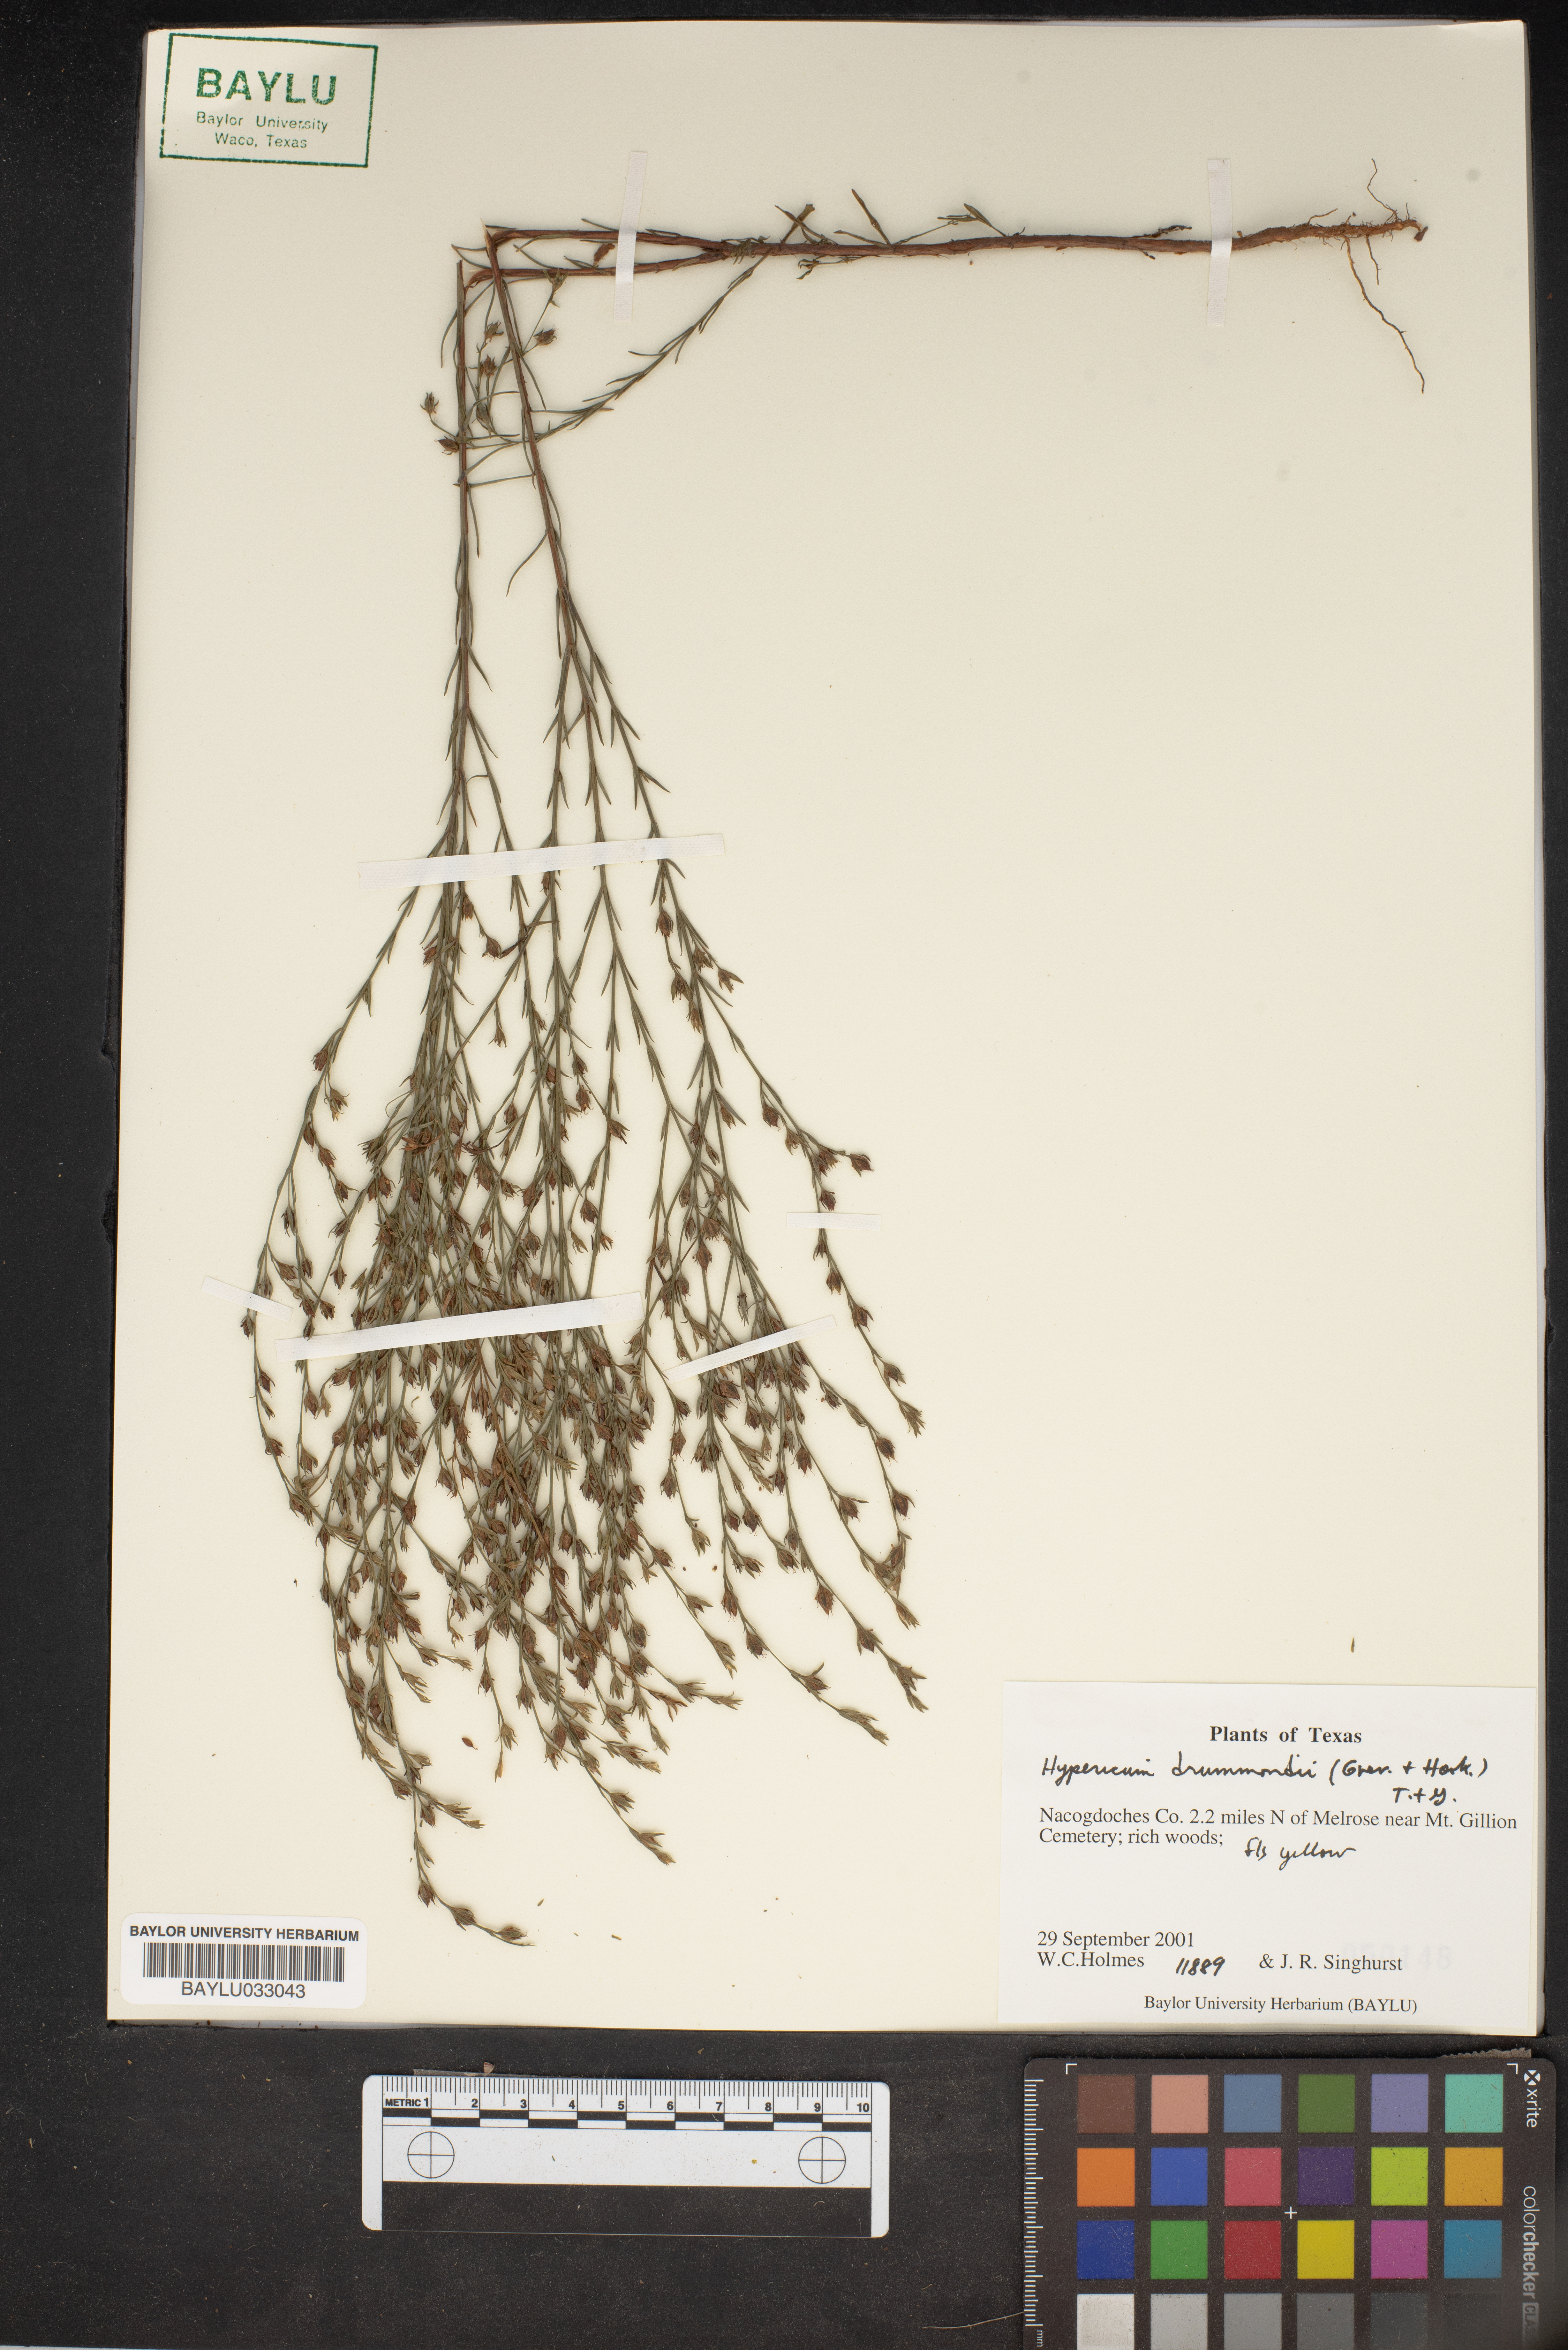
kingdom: Plantae
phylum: Tracheophyta
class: Magnoliopsida
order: Malpighiales
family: Hypericaceae
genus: Hypericum
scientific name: Hypericum drummondii
